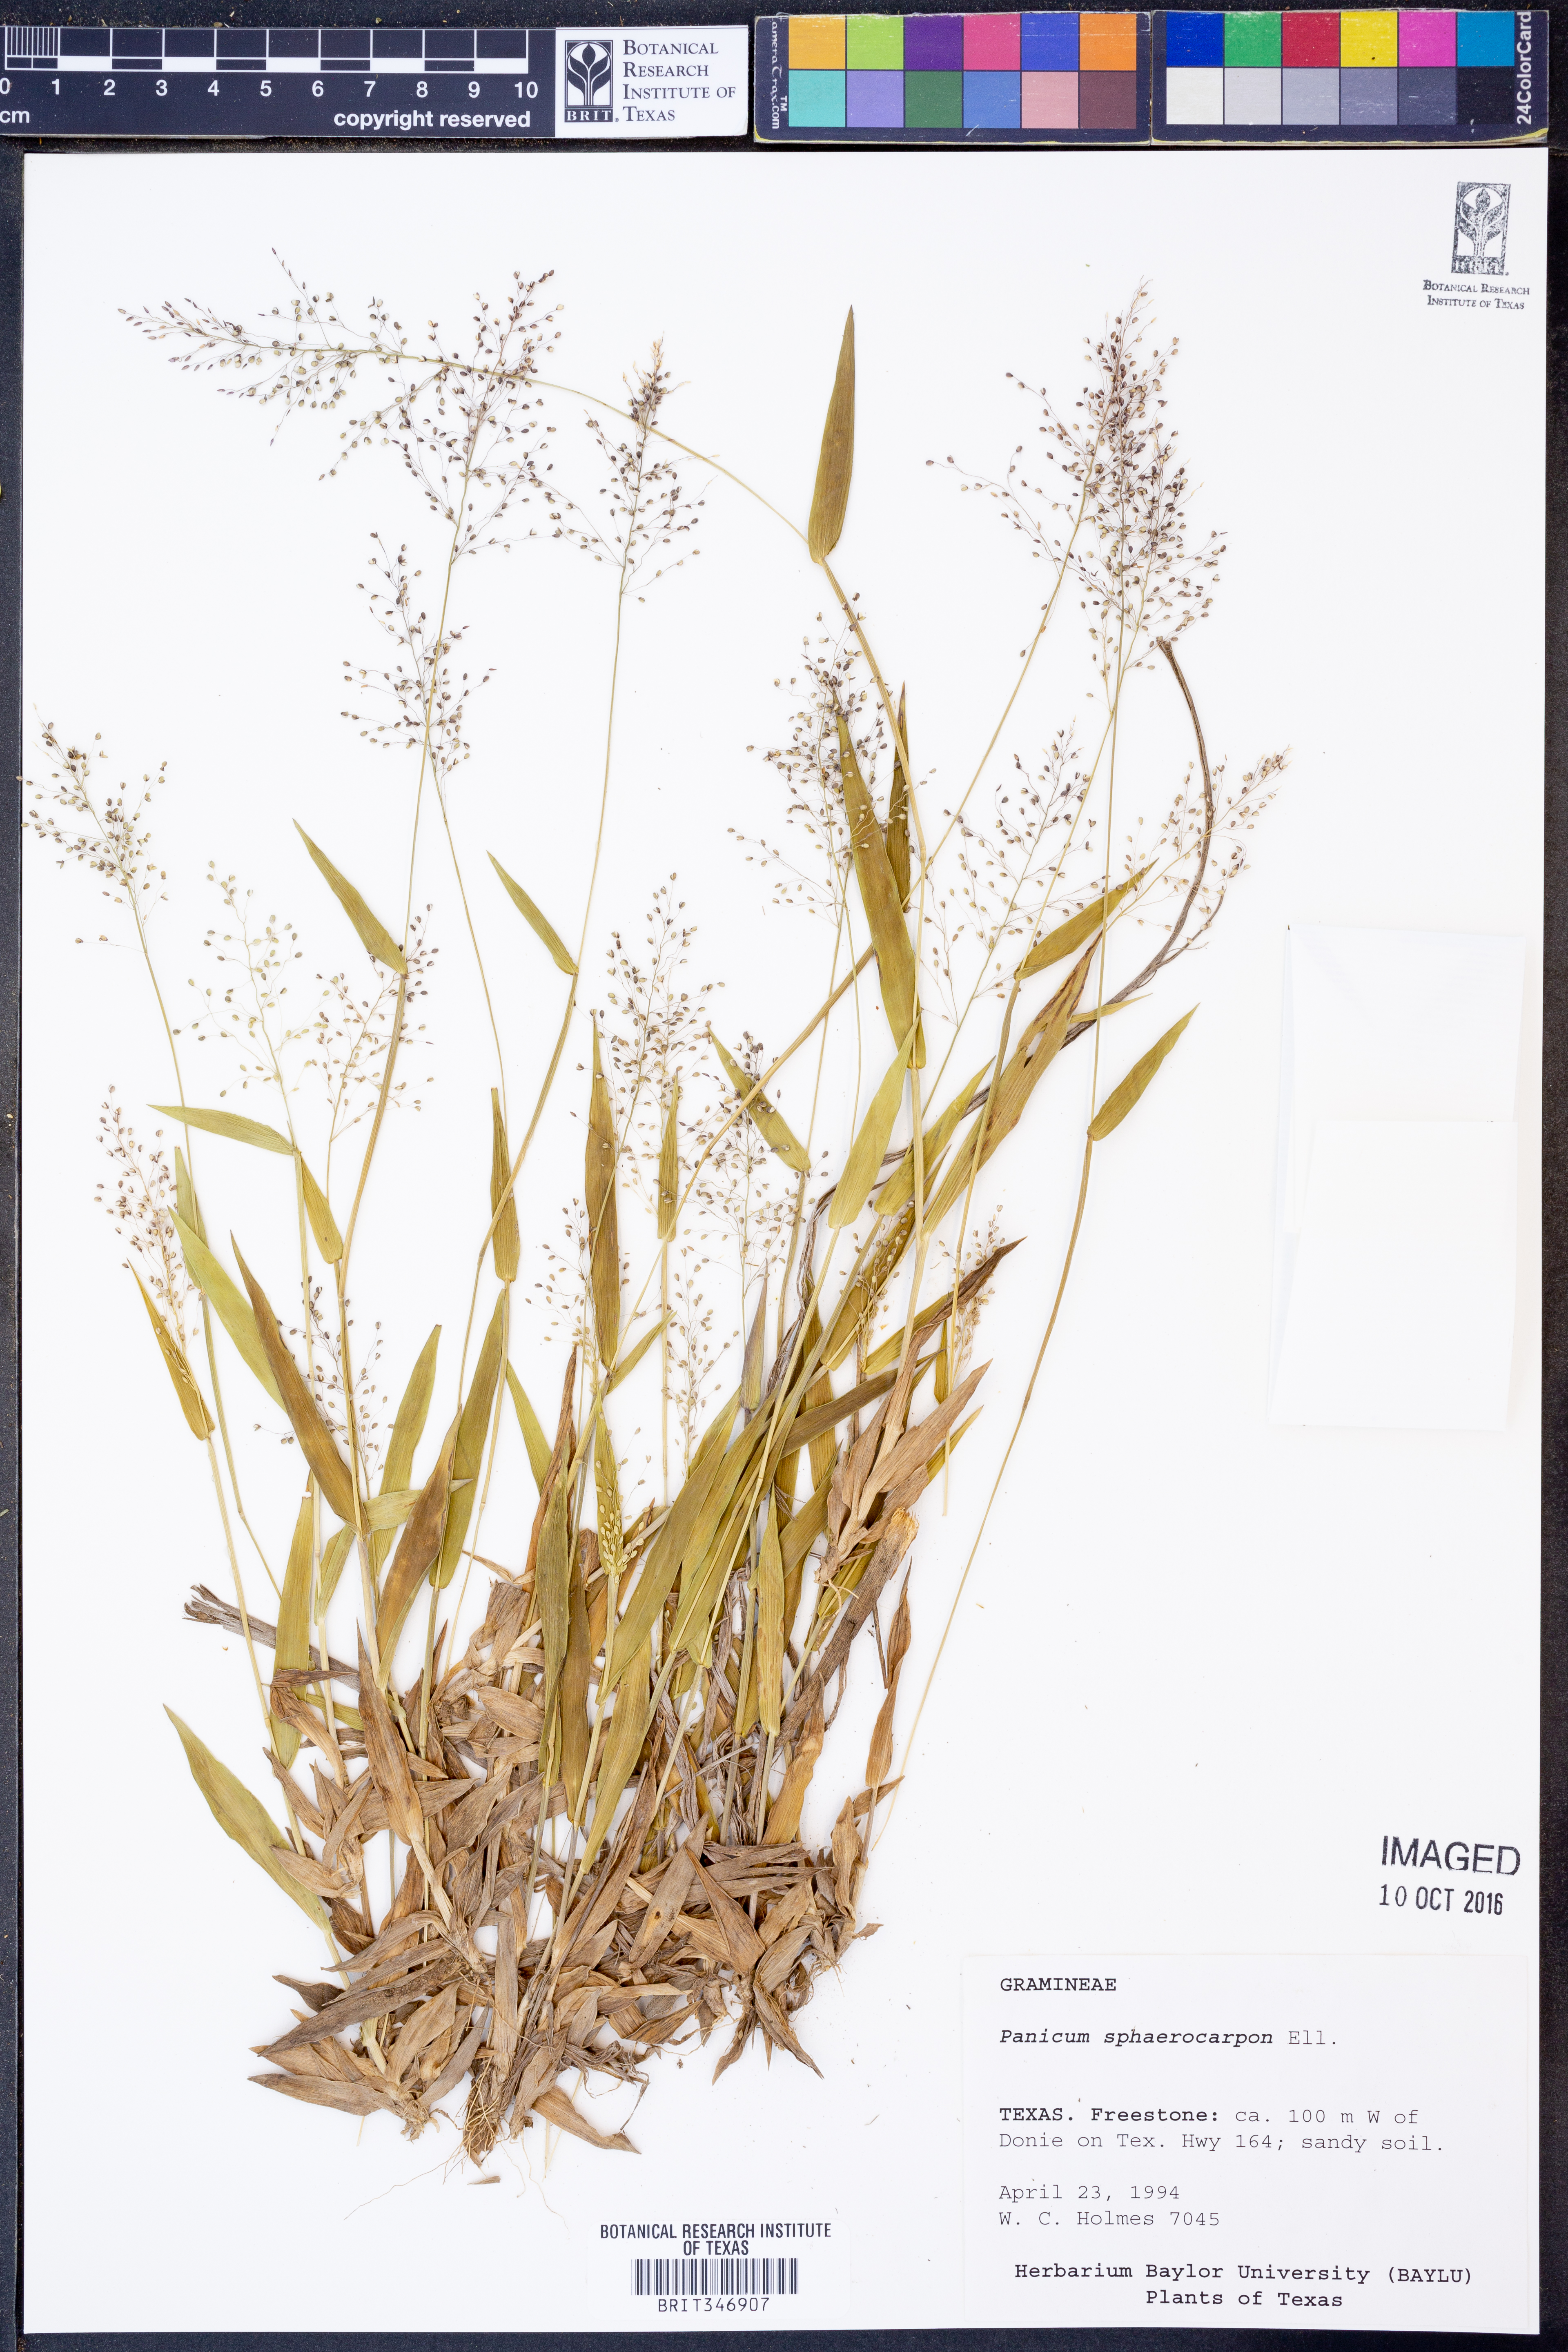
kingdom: Plantae
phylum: Tracheophyta
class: Liliopsida
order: Poales
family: Poaceae
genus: Dichanthelium
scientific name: Dichanthelium sphaerocarpon
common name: Round-fruited panicgrass
